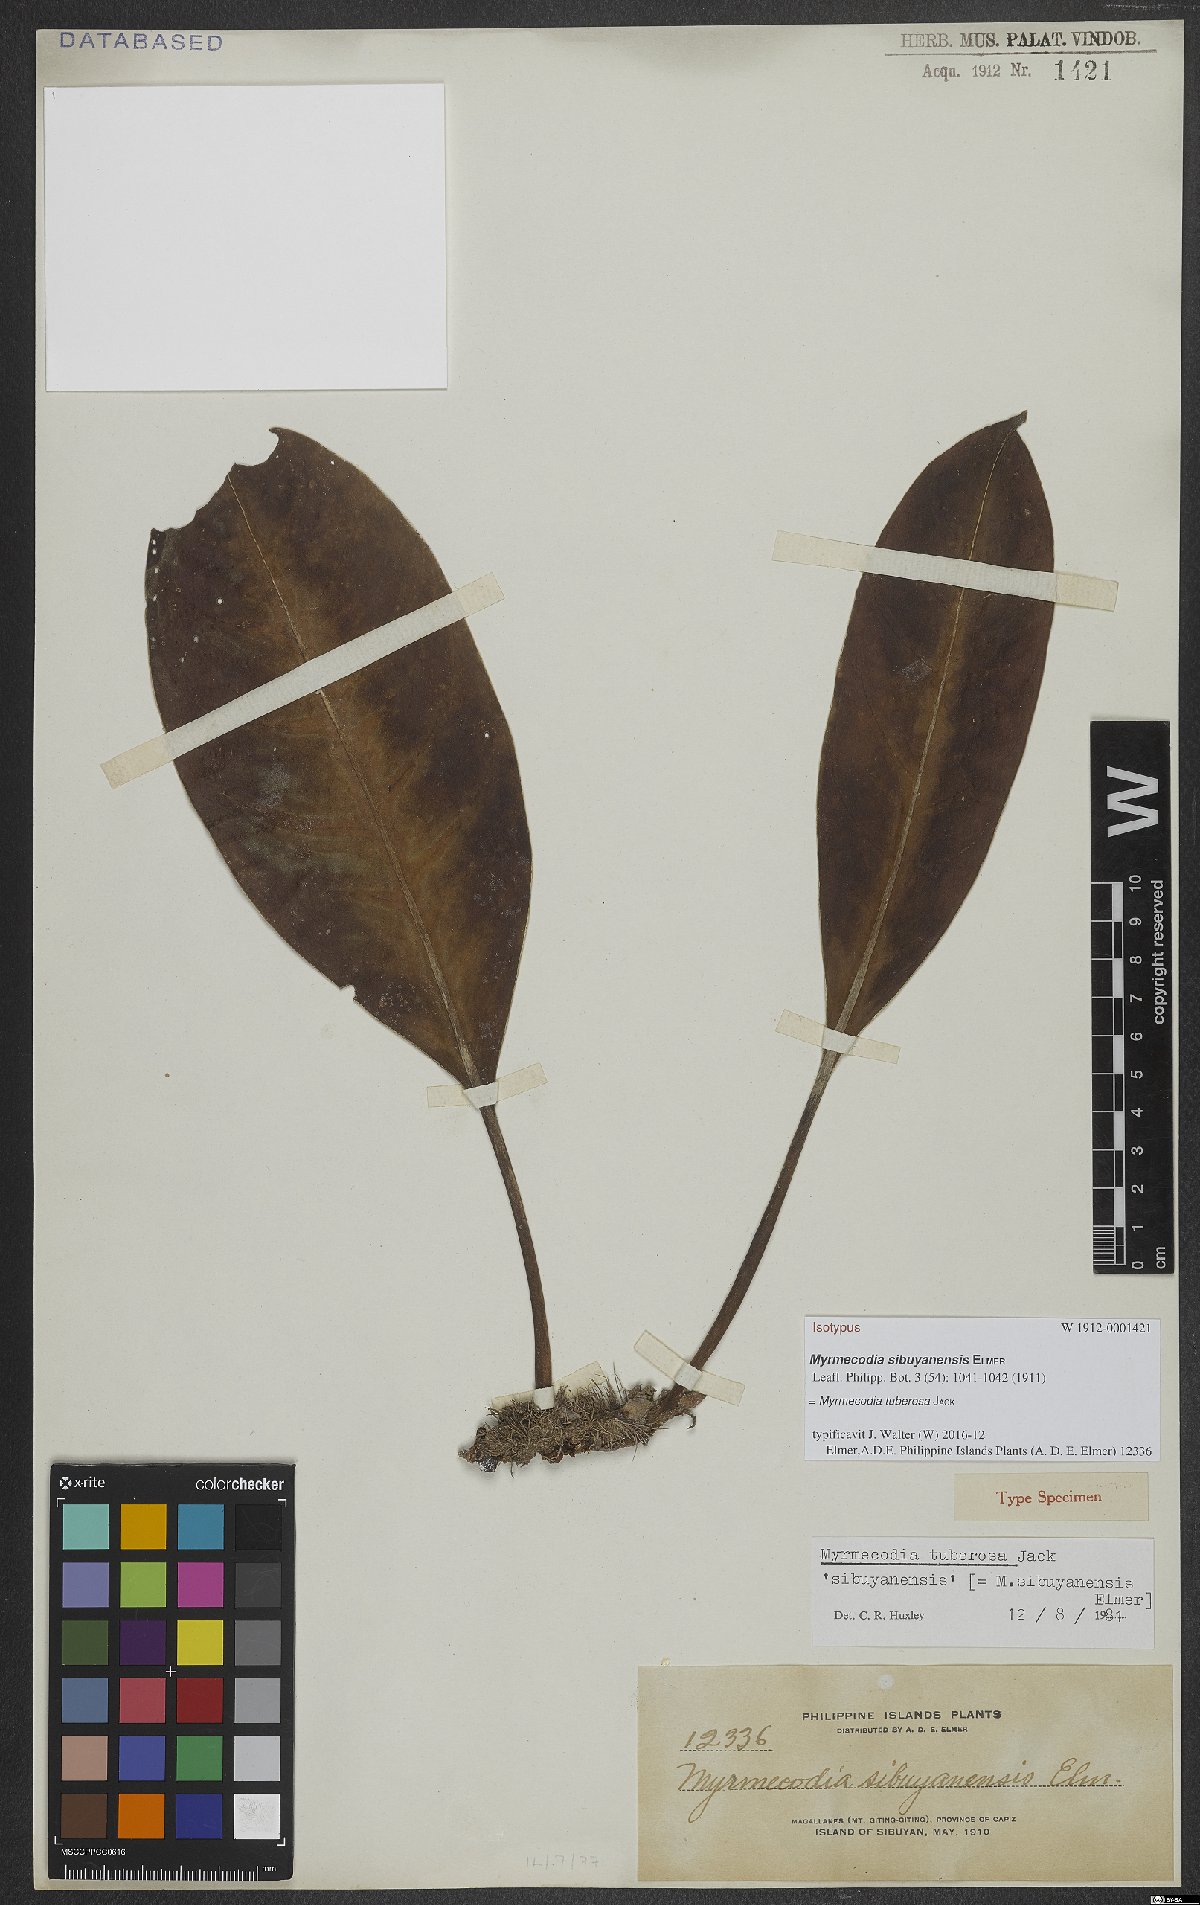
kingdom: Plantae
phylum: Tracheophyta
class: Magnoliopsida
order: Gentianales
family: Rubiaceae
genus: Myrmecodia
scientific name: Myrmecodia tuberosa
